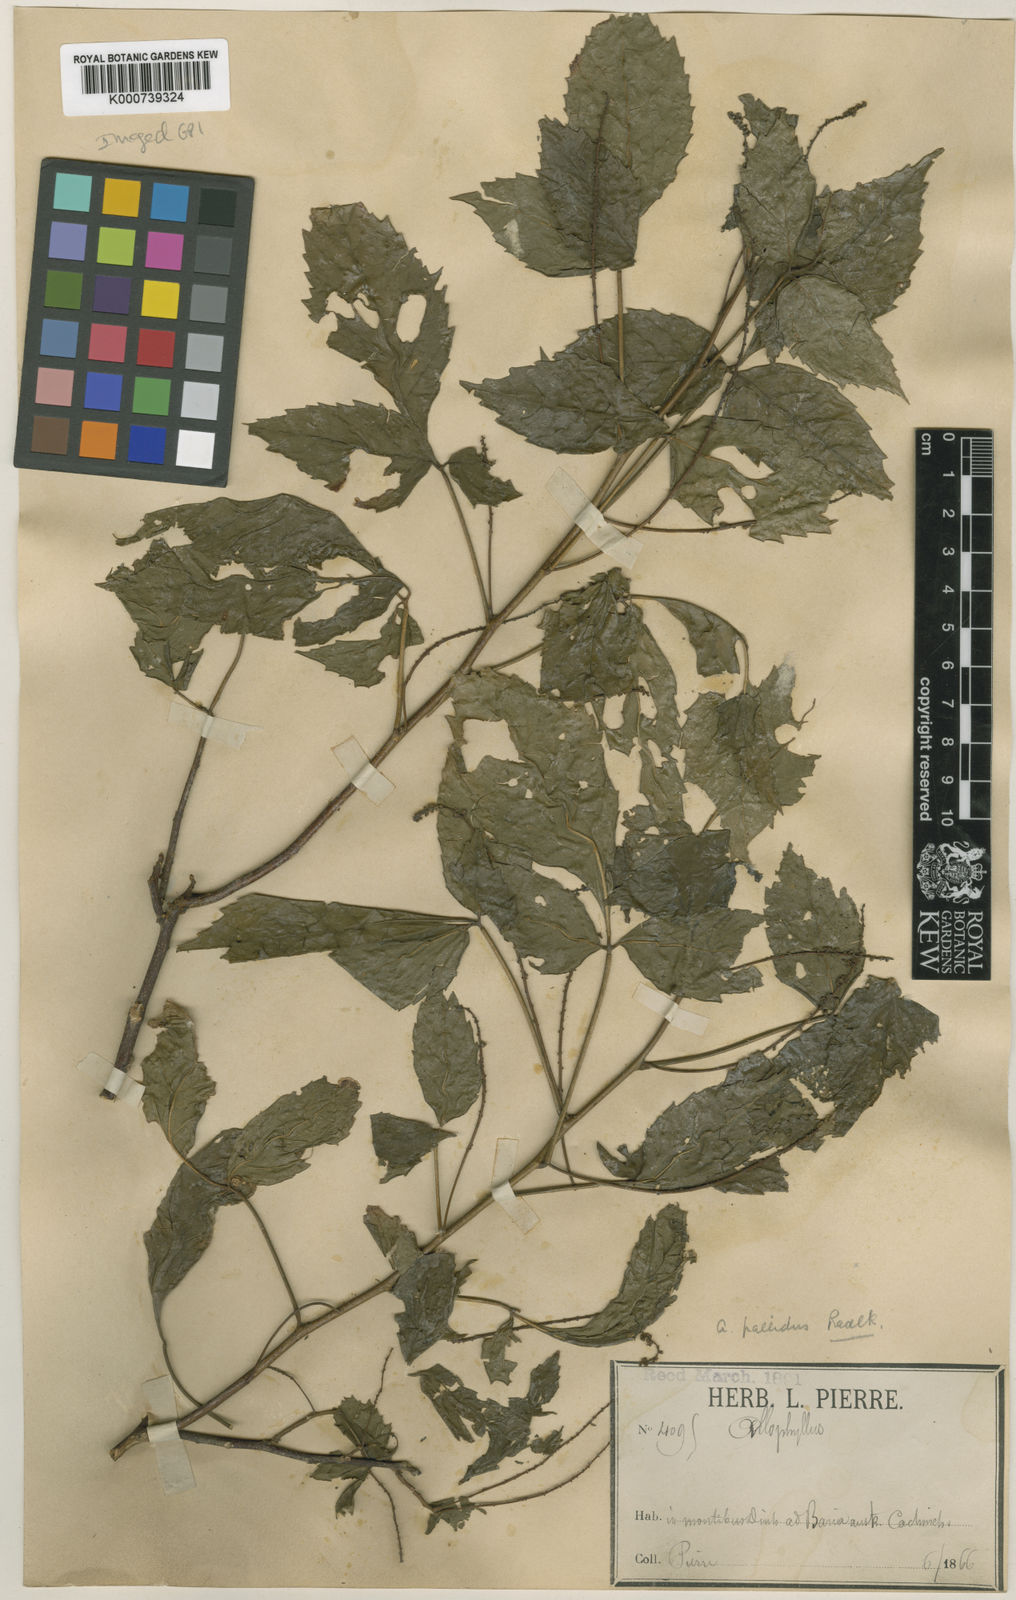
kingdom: Plantae
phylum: Tracheophyta
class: Magnoliopsida
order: Sapindales
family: Sapindaceae
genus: Allophylus
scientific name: Allophylus pallidus
